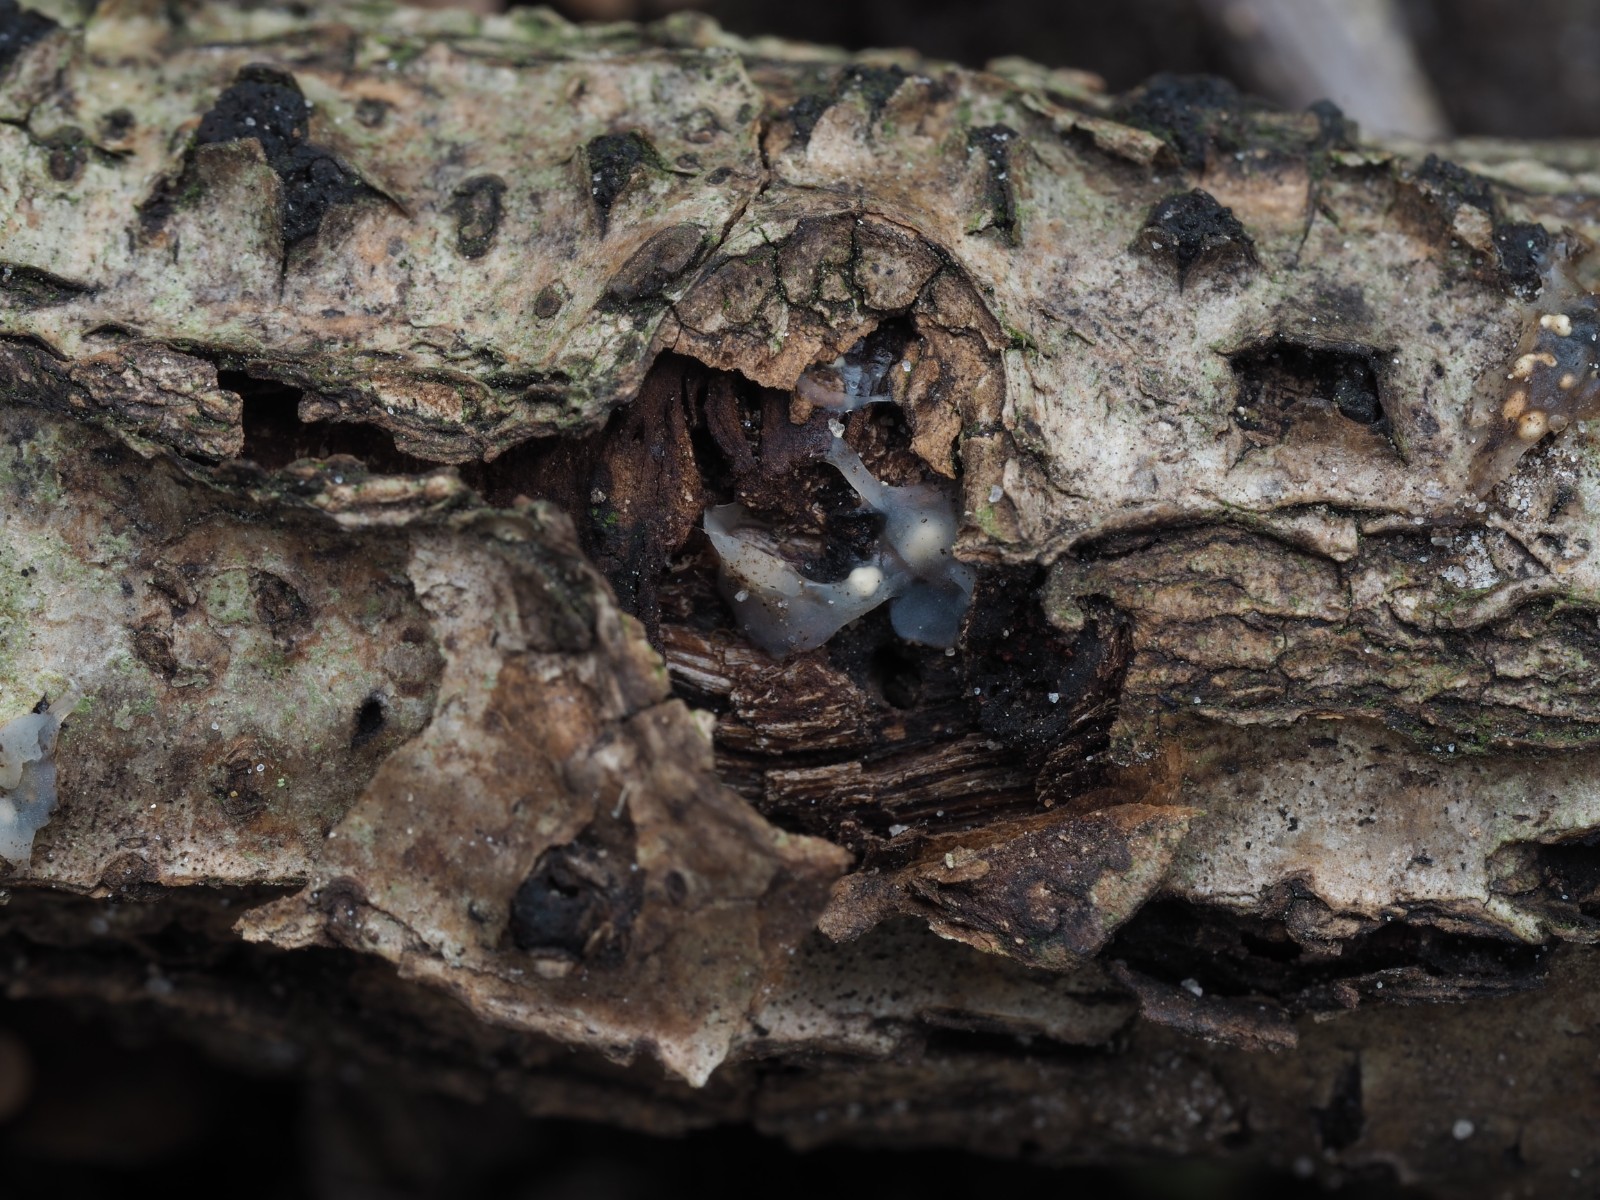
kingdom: Fungi
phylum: Basidiomycota
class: Agaricomycetes
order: Auriculariales
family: Hyaloriaceae
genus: Myxarium
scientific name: Myxarium nucleatum
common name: klar bævretop
